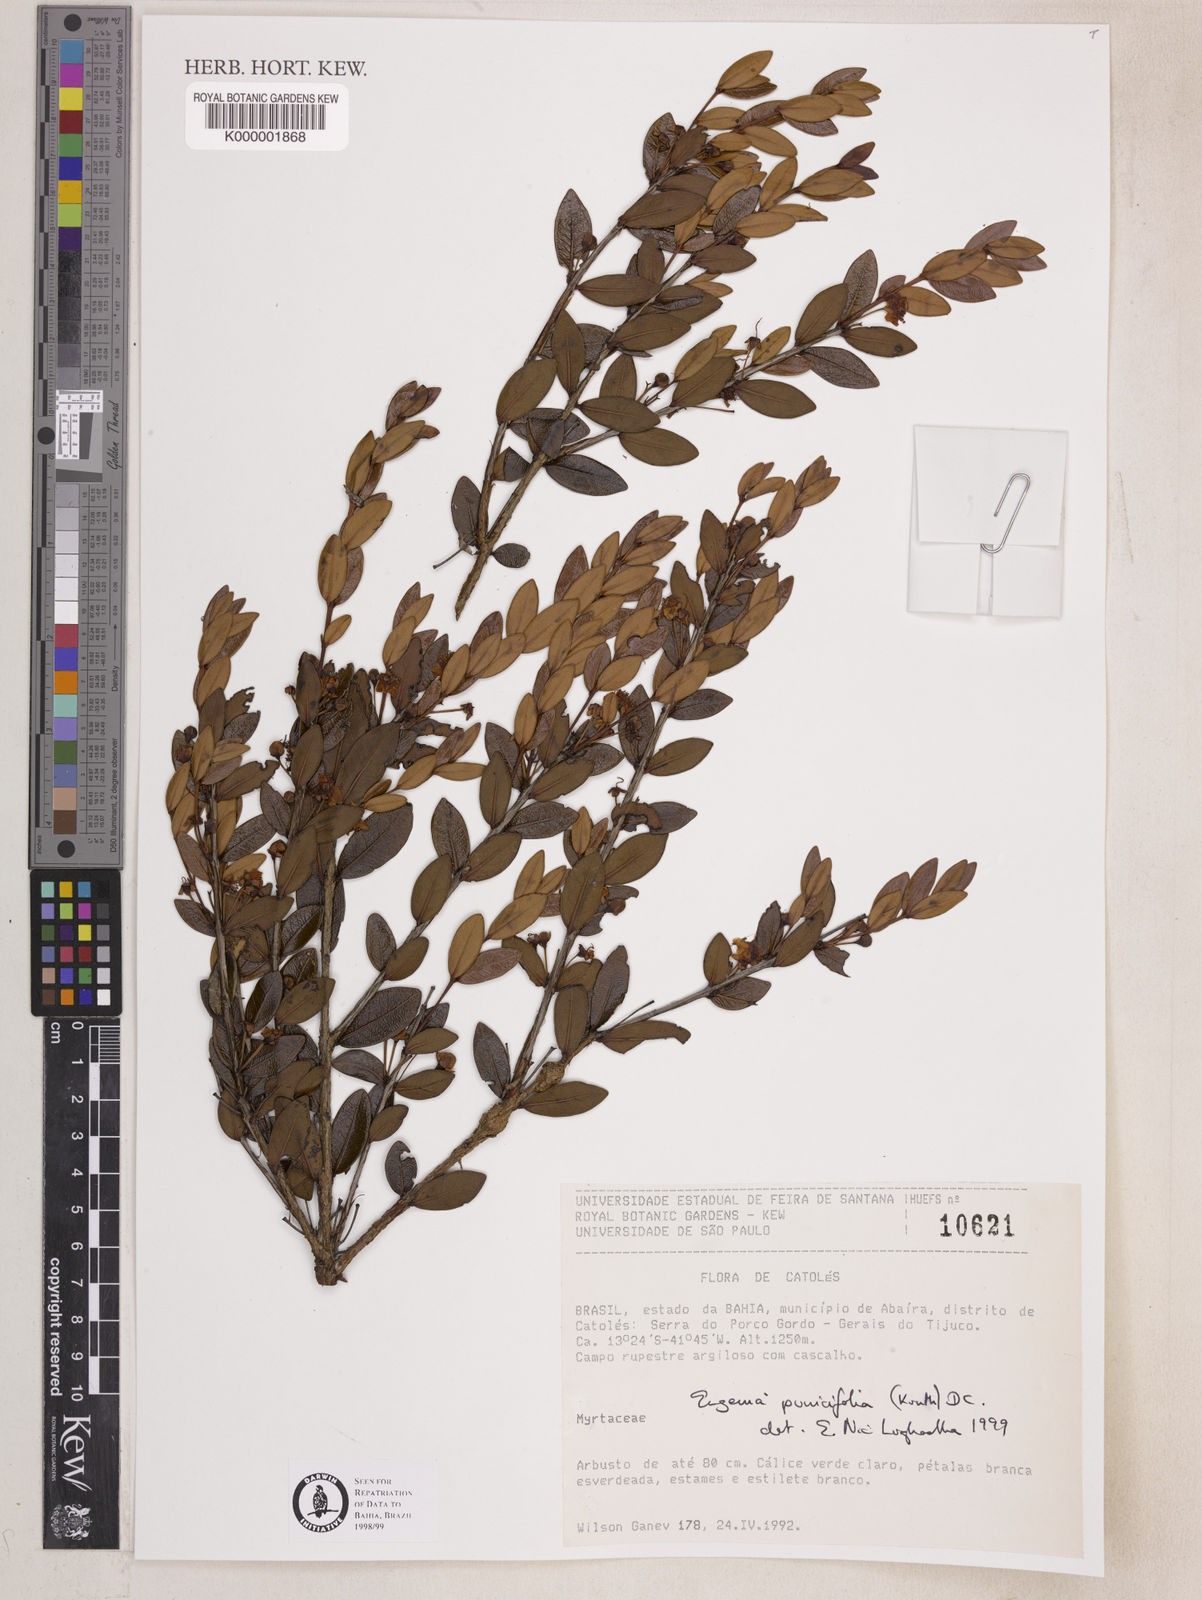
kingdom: Plantae
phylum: Tracheophyta
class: Magnoliopsida
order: Myrtales
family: Myrtaceae
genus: Eugenia
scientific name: Eugenia punicifolia
